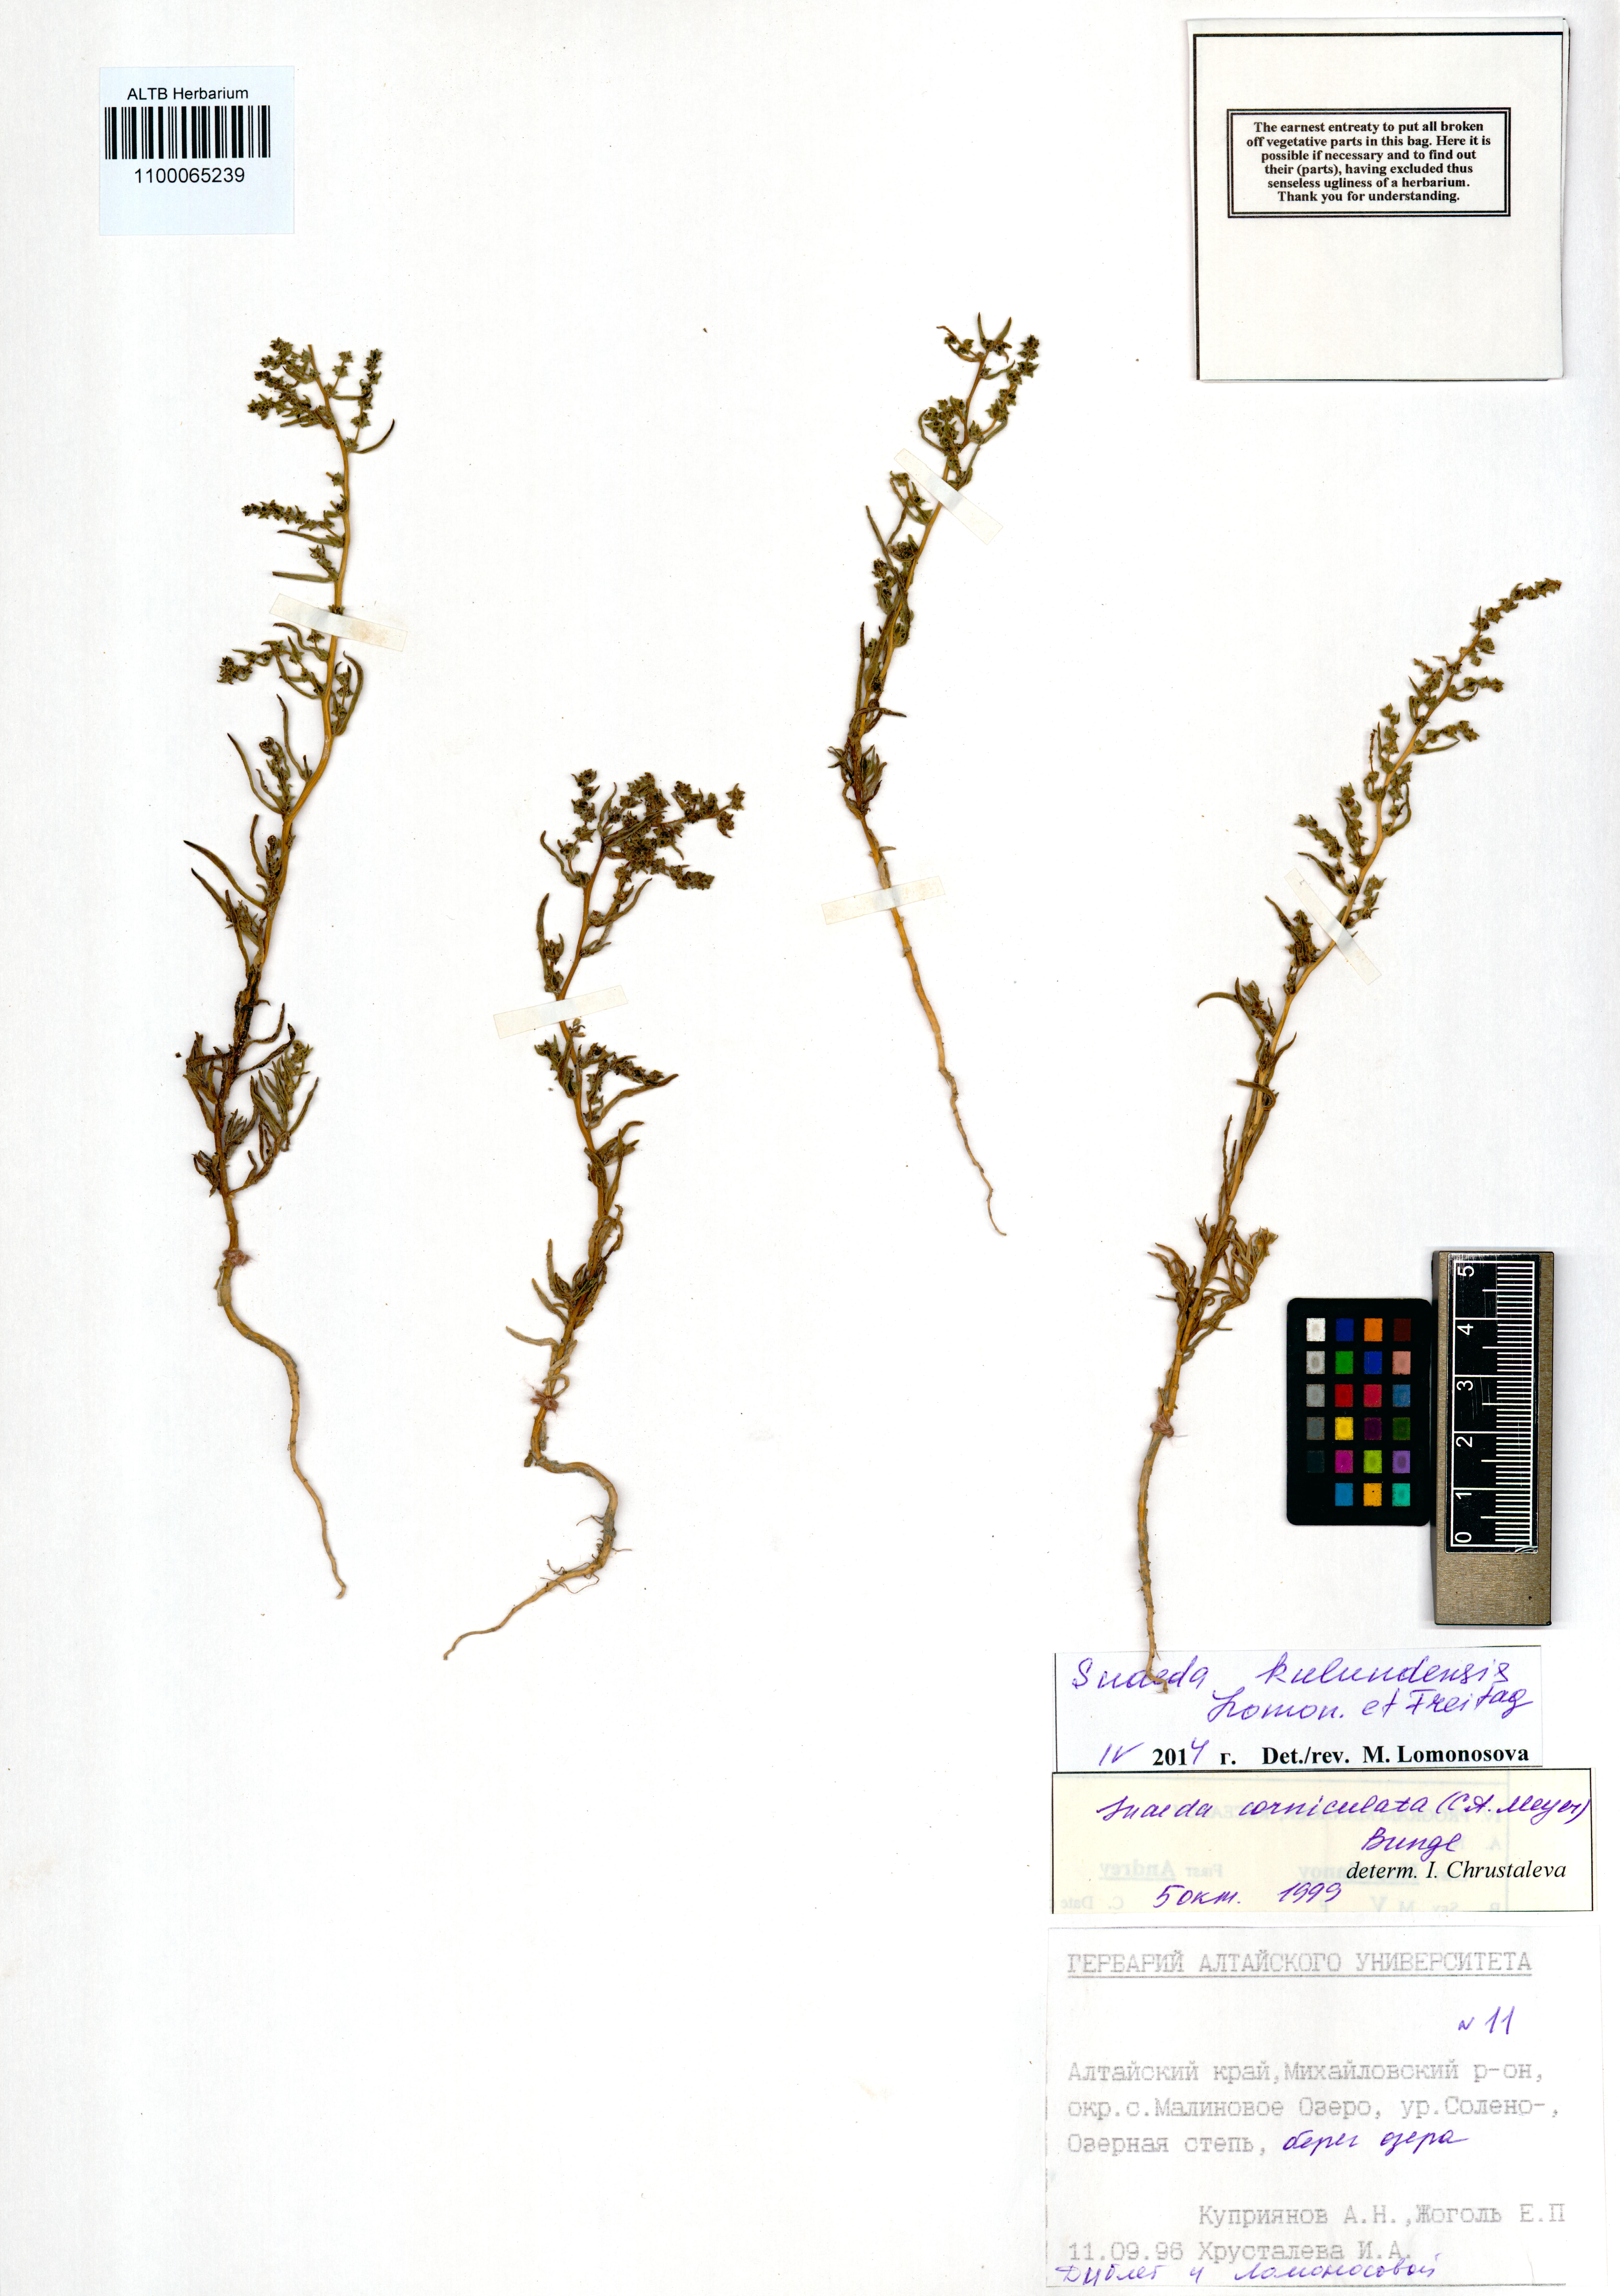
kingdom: Plantae
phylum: Tracheophyta
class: Magnoliopsida
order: Caryophyllales
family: Amaranthaceae
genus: Suaeda
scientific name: Suaeda kulundensis
